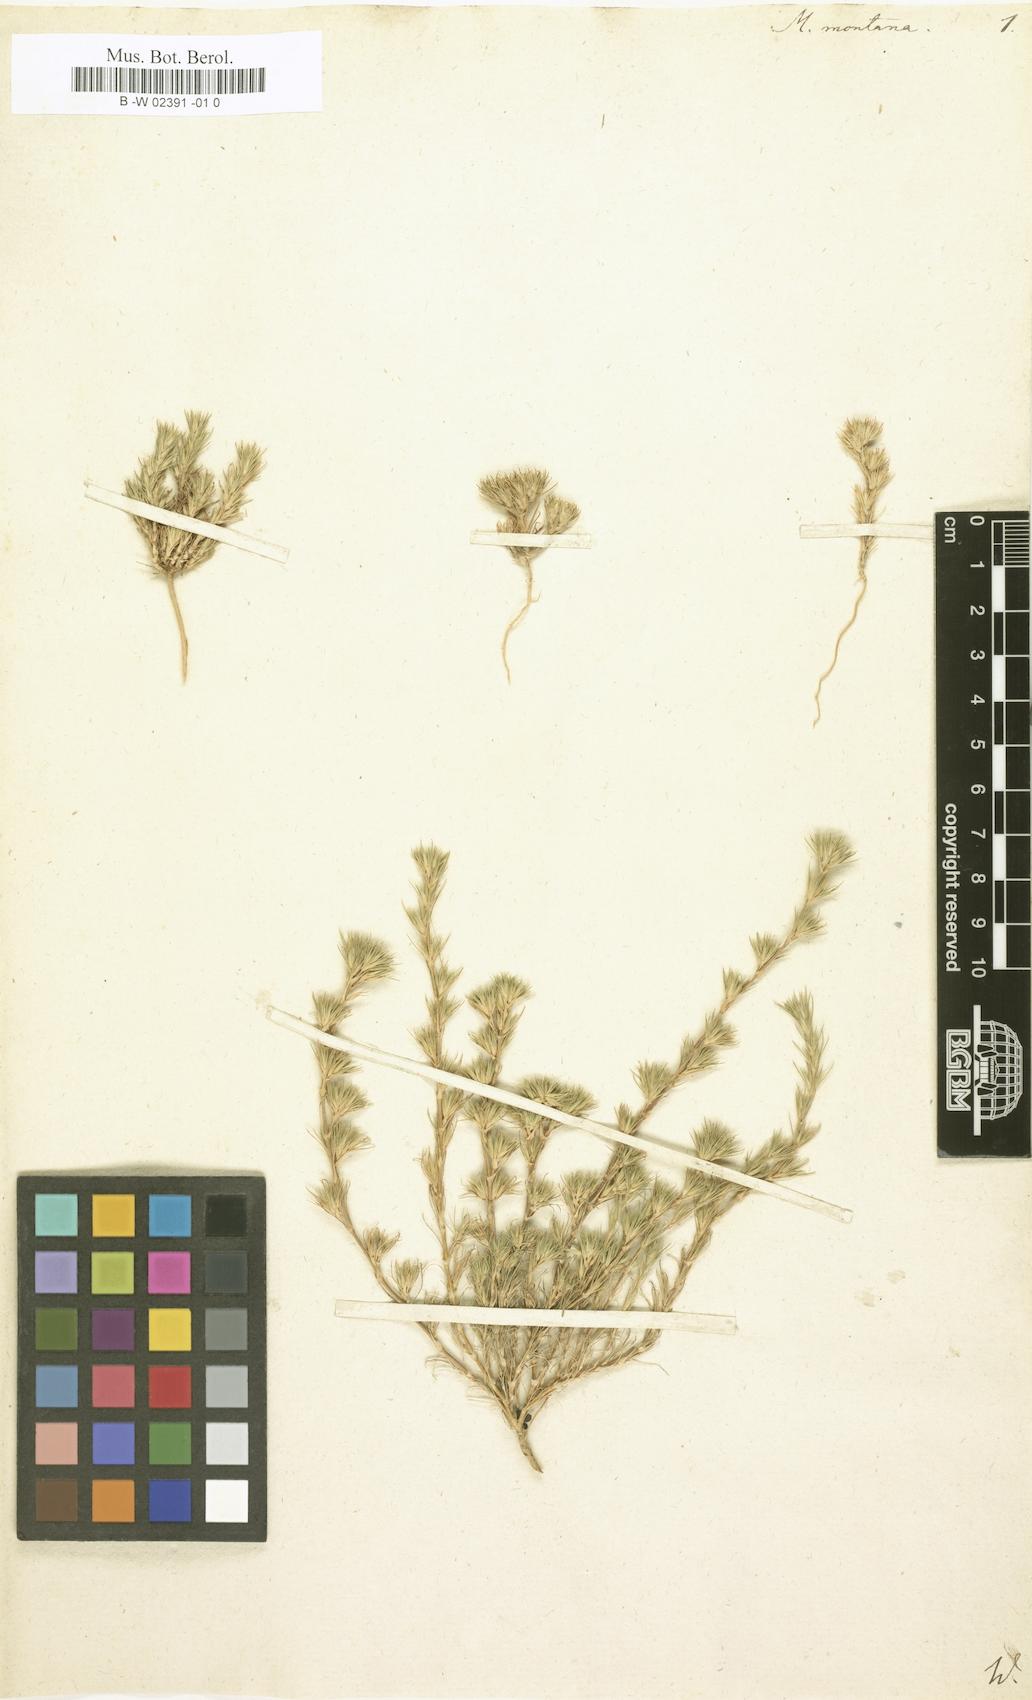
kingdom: Plantae
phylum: Tracheophyta
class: Magnoliopsida
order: Caryophyllales
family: Caryophyllaceae
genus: Minuartia
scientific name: Minuartia montana
